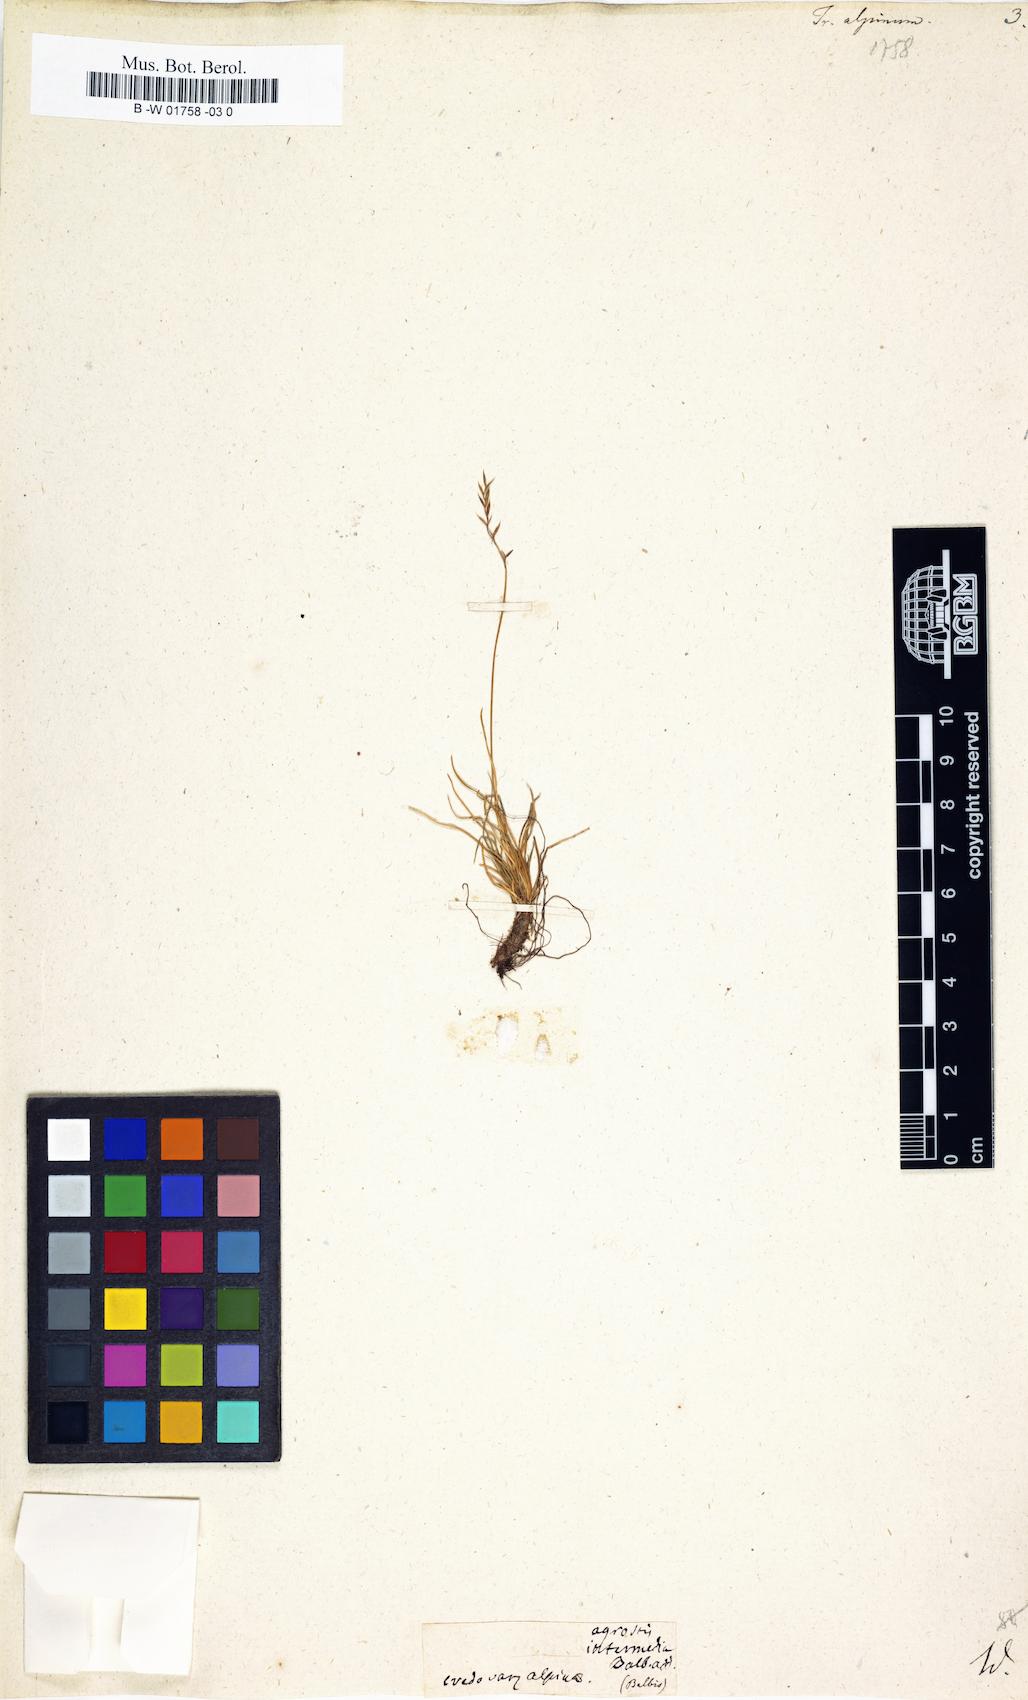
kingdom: Plantae
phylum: Tracheophyta
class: Liliopsida
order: Poales
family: Poaceae
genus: Agrostis
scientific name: Agrostis rupestris
